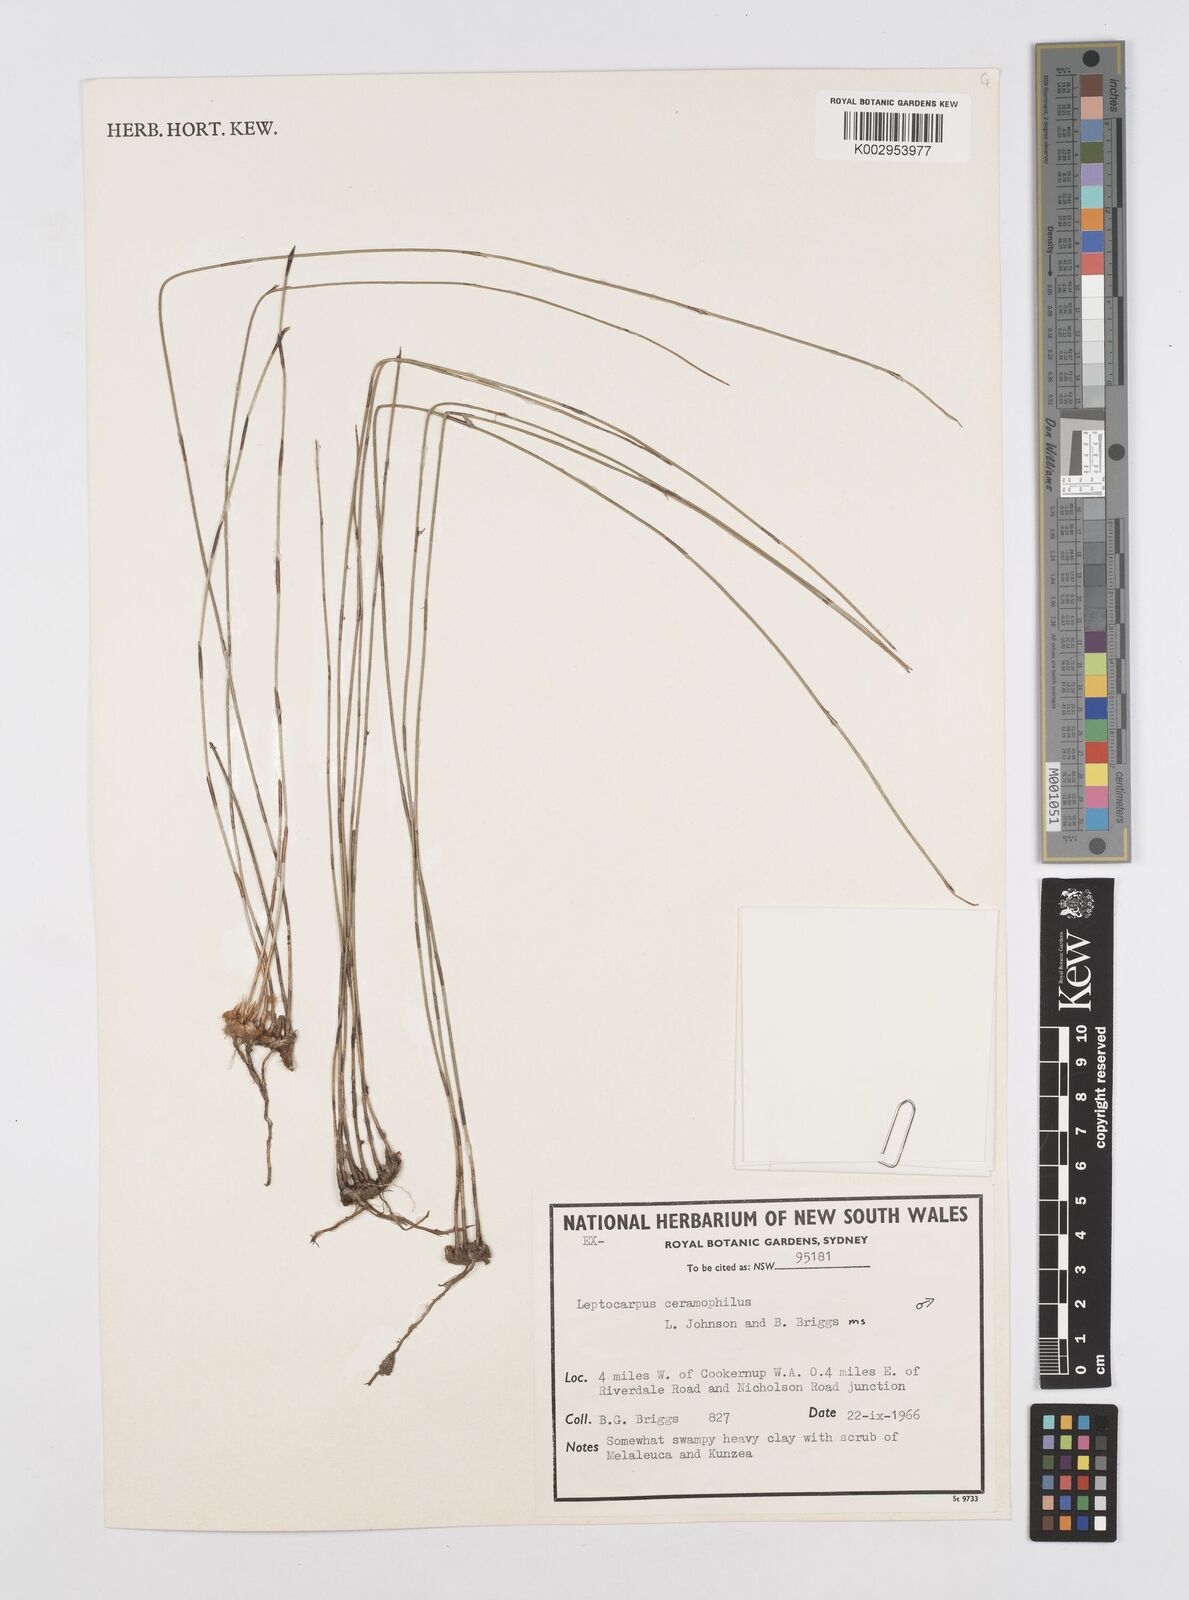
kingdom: Plantae
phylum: Tracheophyta
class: Liliopsida
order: Poales
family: Restionaceae
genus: Apodasmia
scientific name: Apodasmia ceramophila
